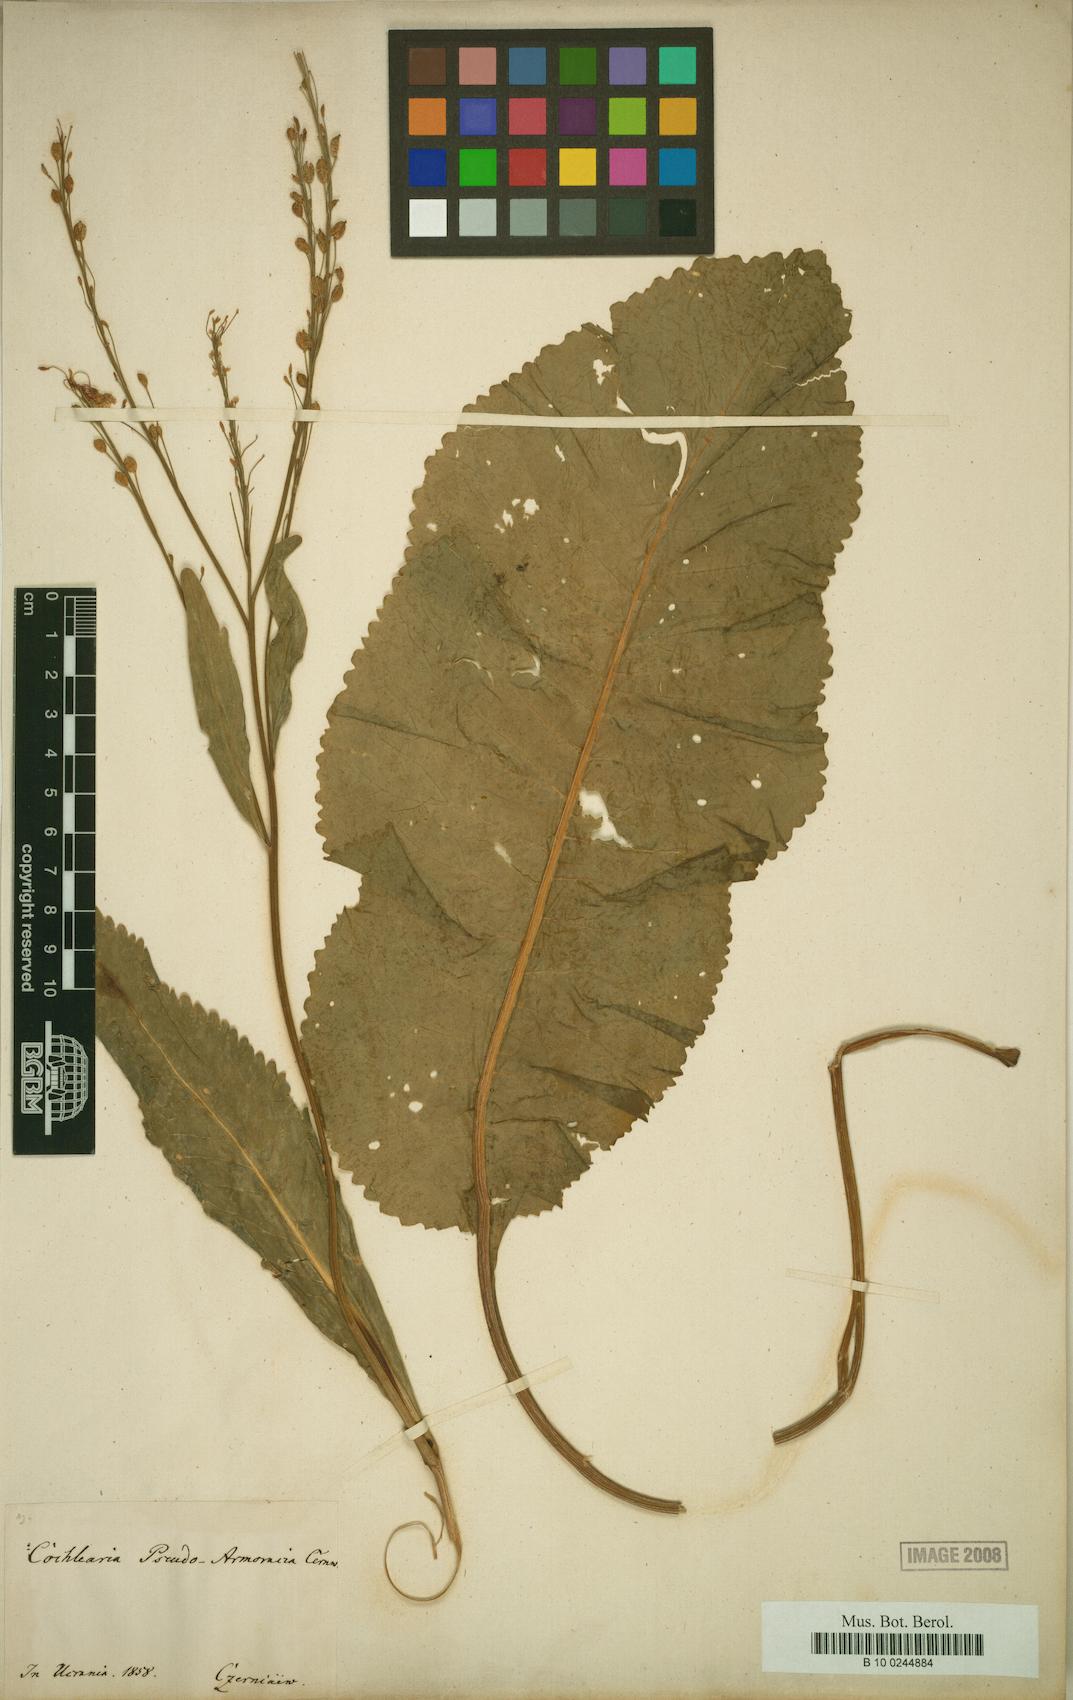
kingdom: Plantae
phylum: Tracheophyta
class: Magnoliopsida
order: Brassicales
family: Brassicaceae
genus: Armoracia
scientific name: Armoracia macrocarpa
